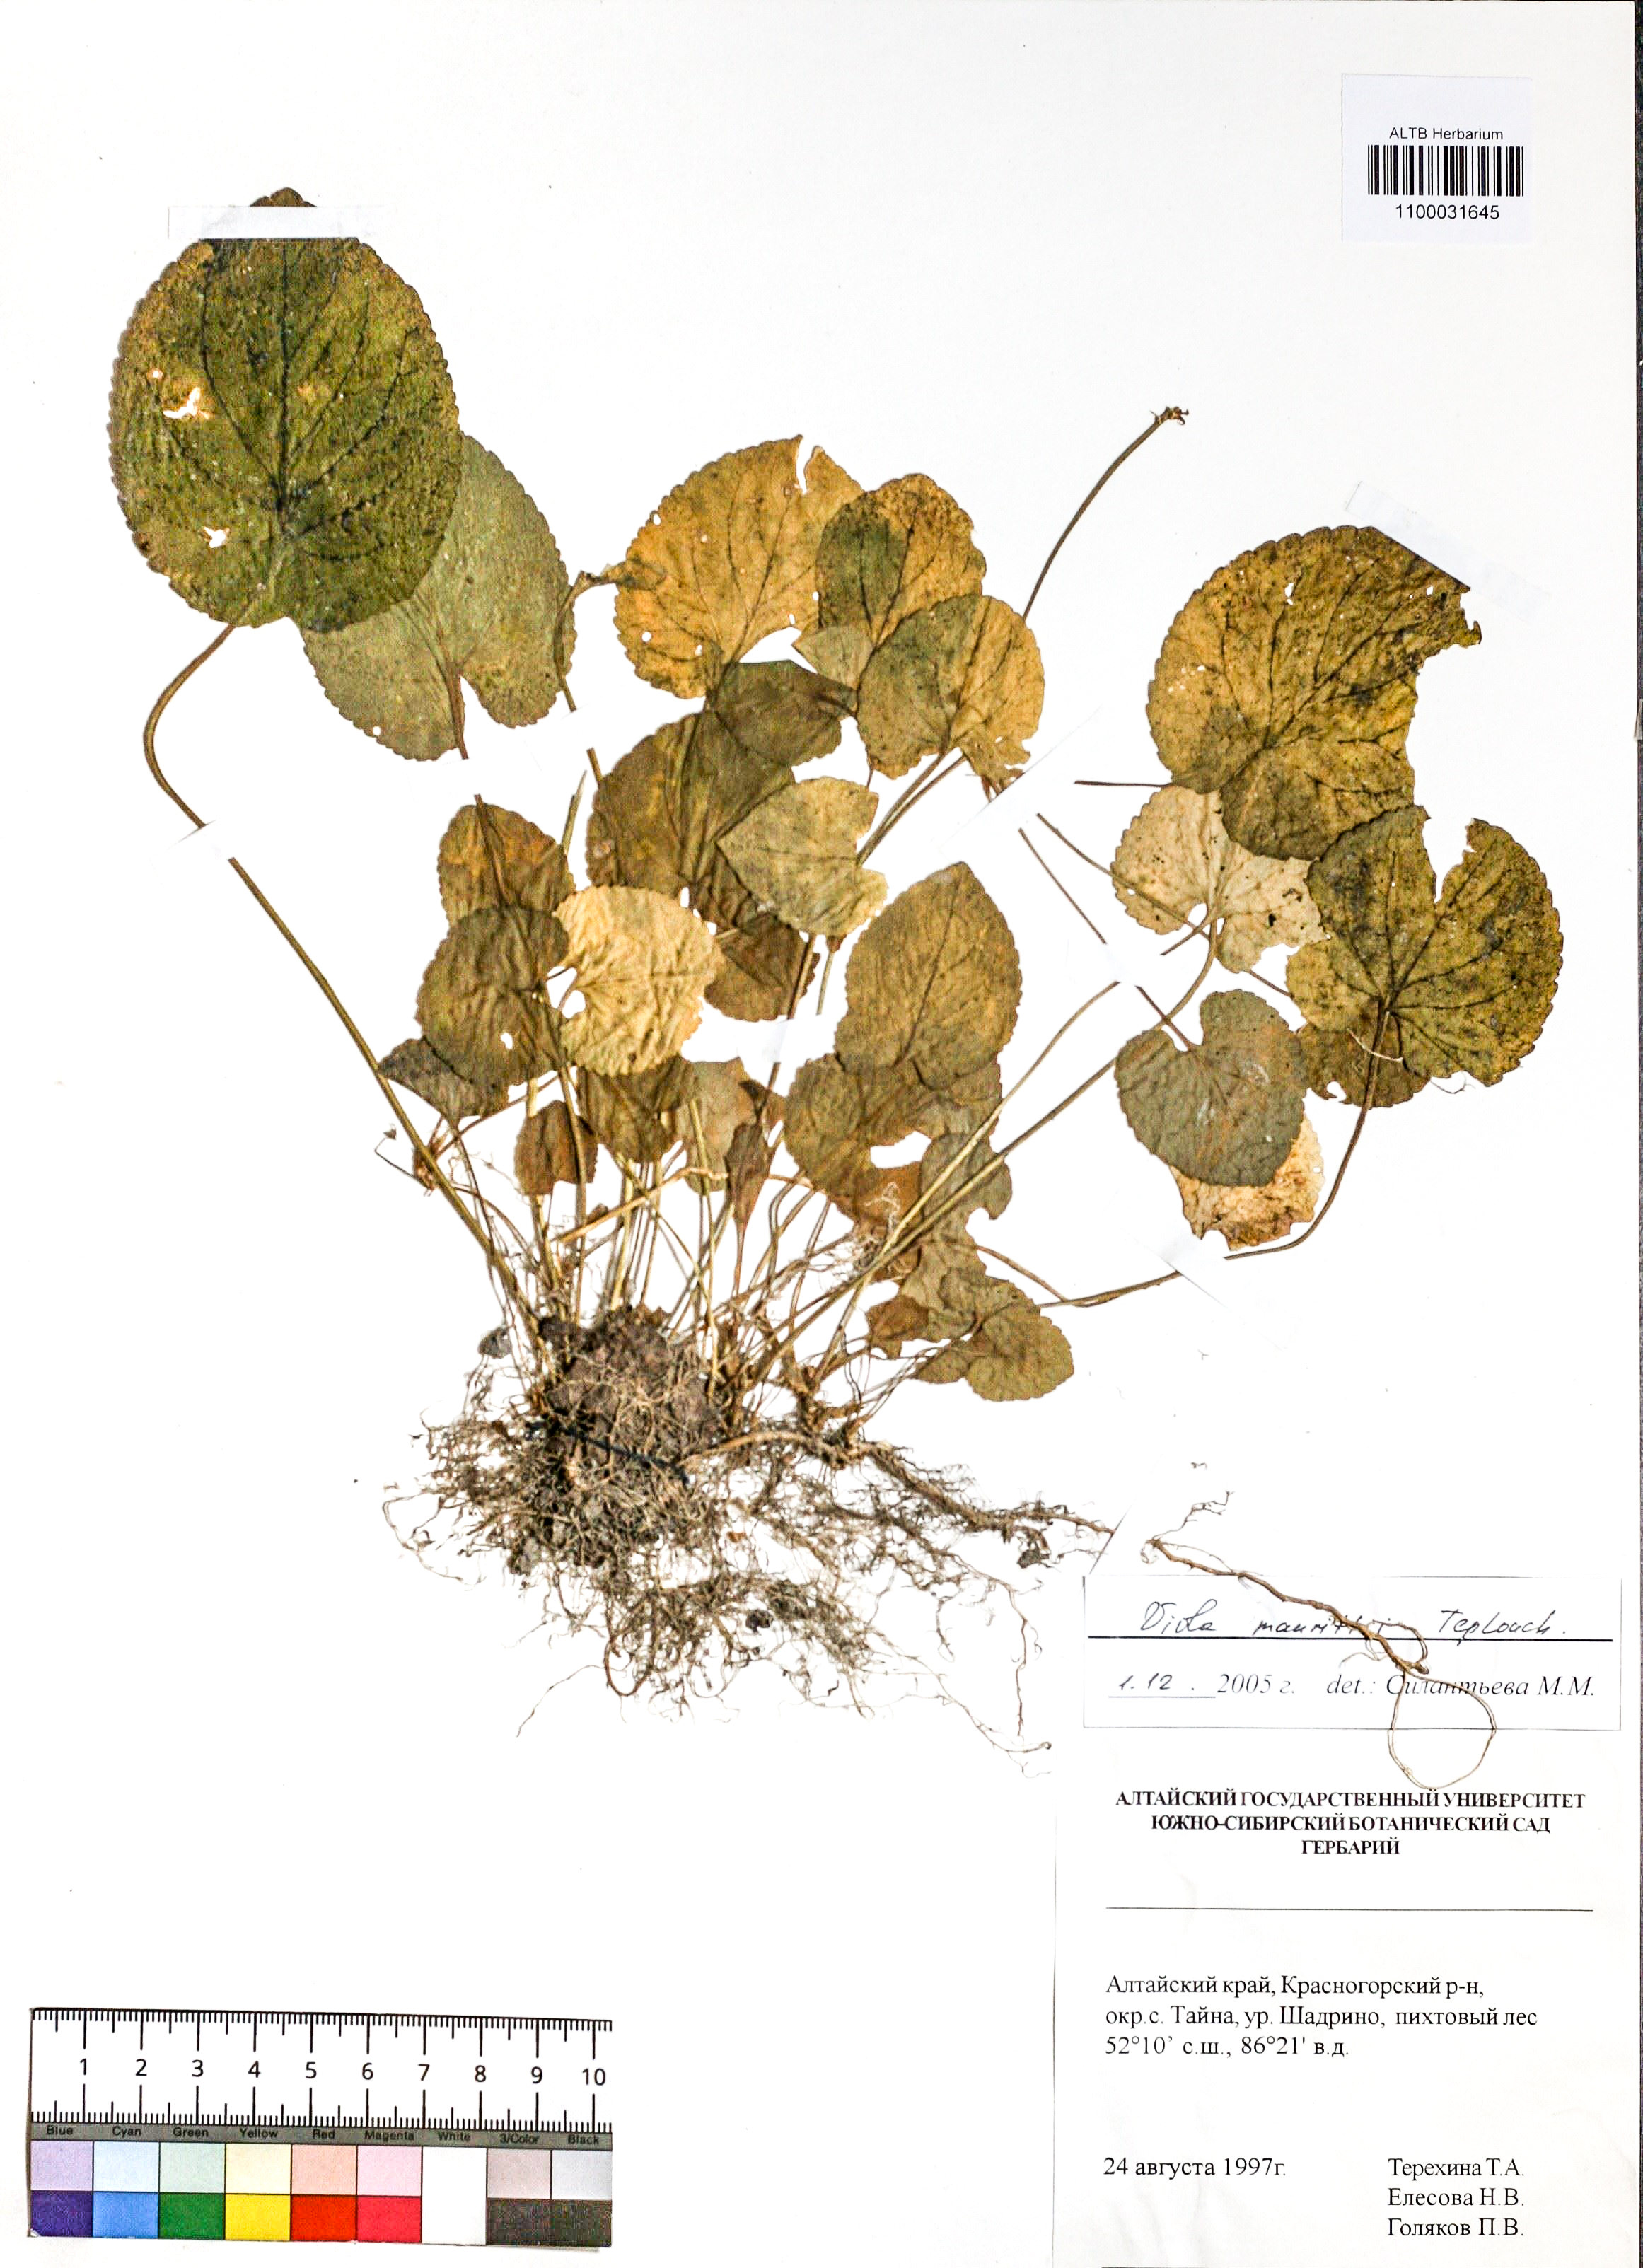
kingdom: Plantae
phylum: Tracheophyta
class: Magnoliopsida
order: Malpighiales
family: Violaceae
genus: Viola
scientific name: Viola mauritii
